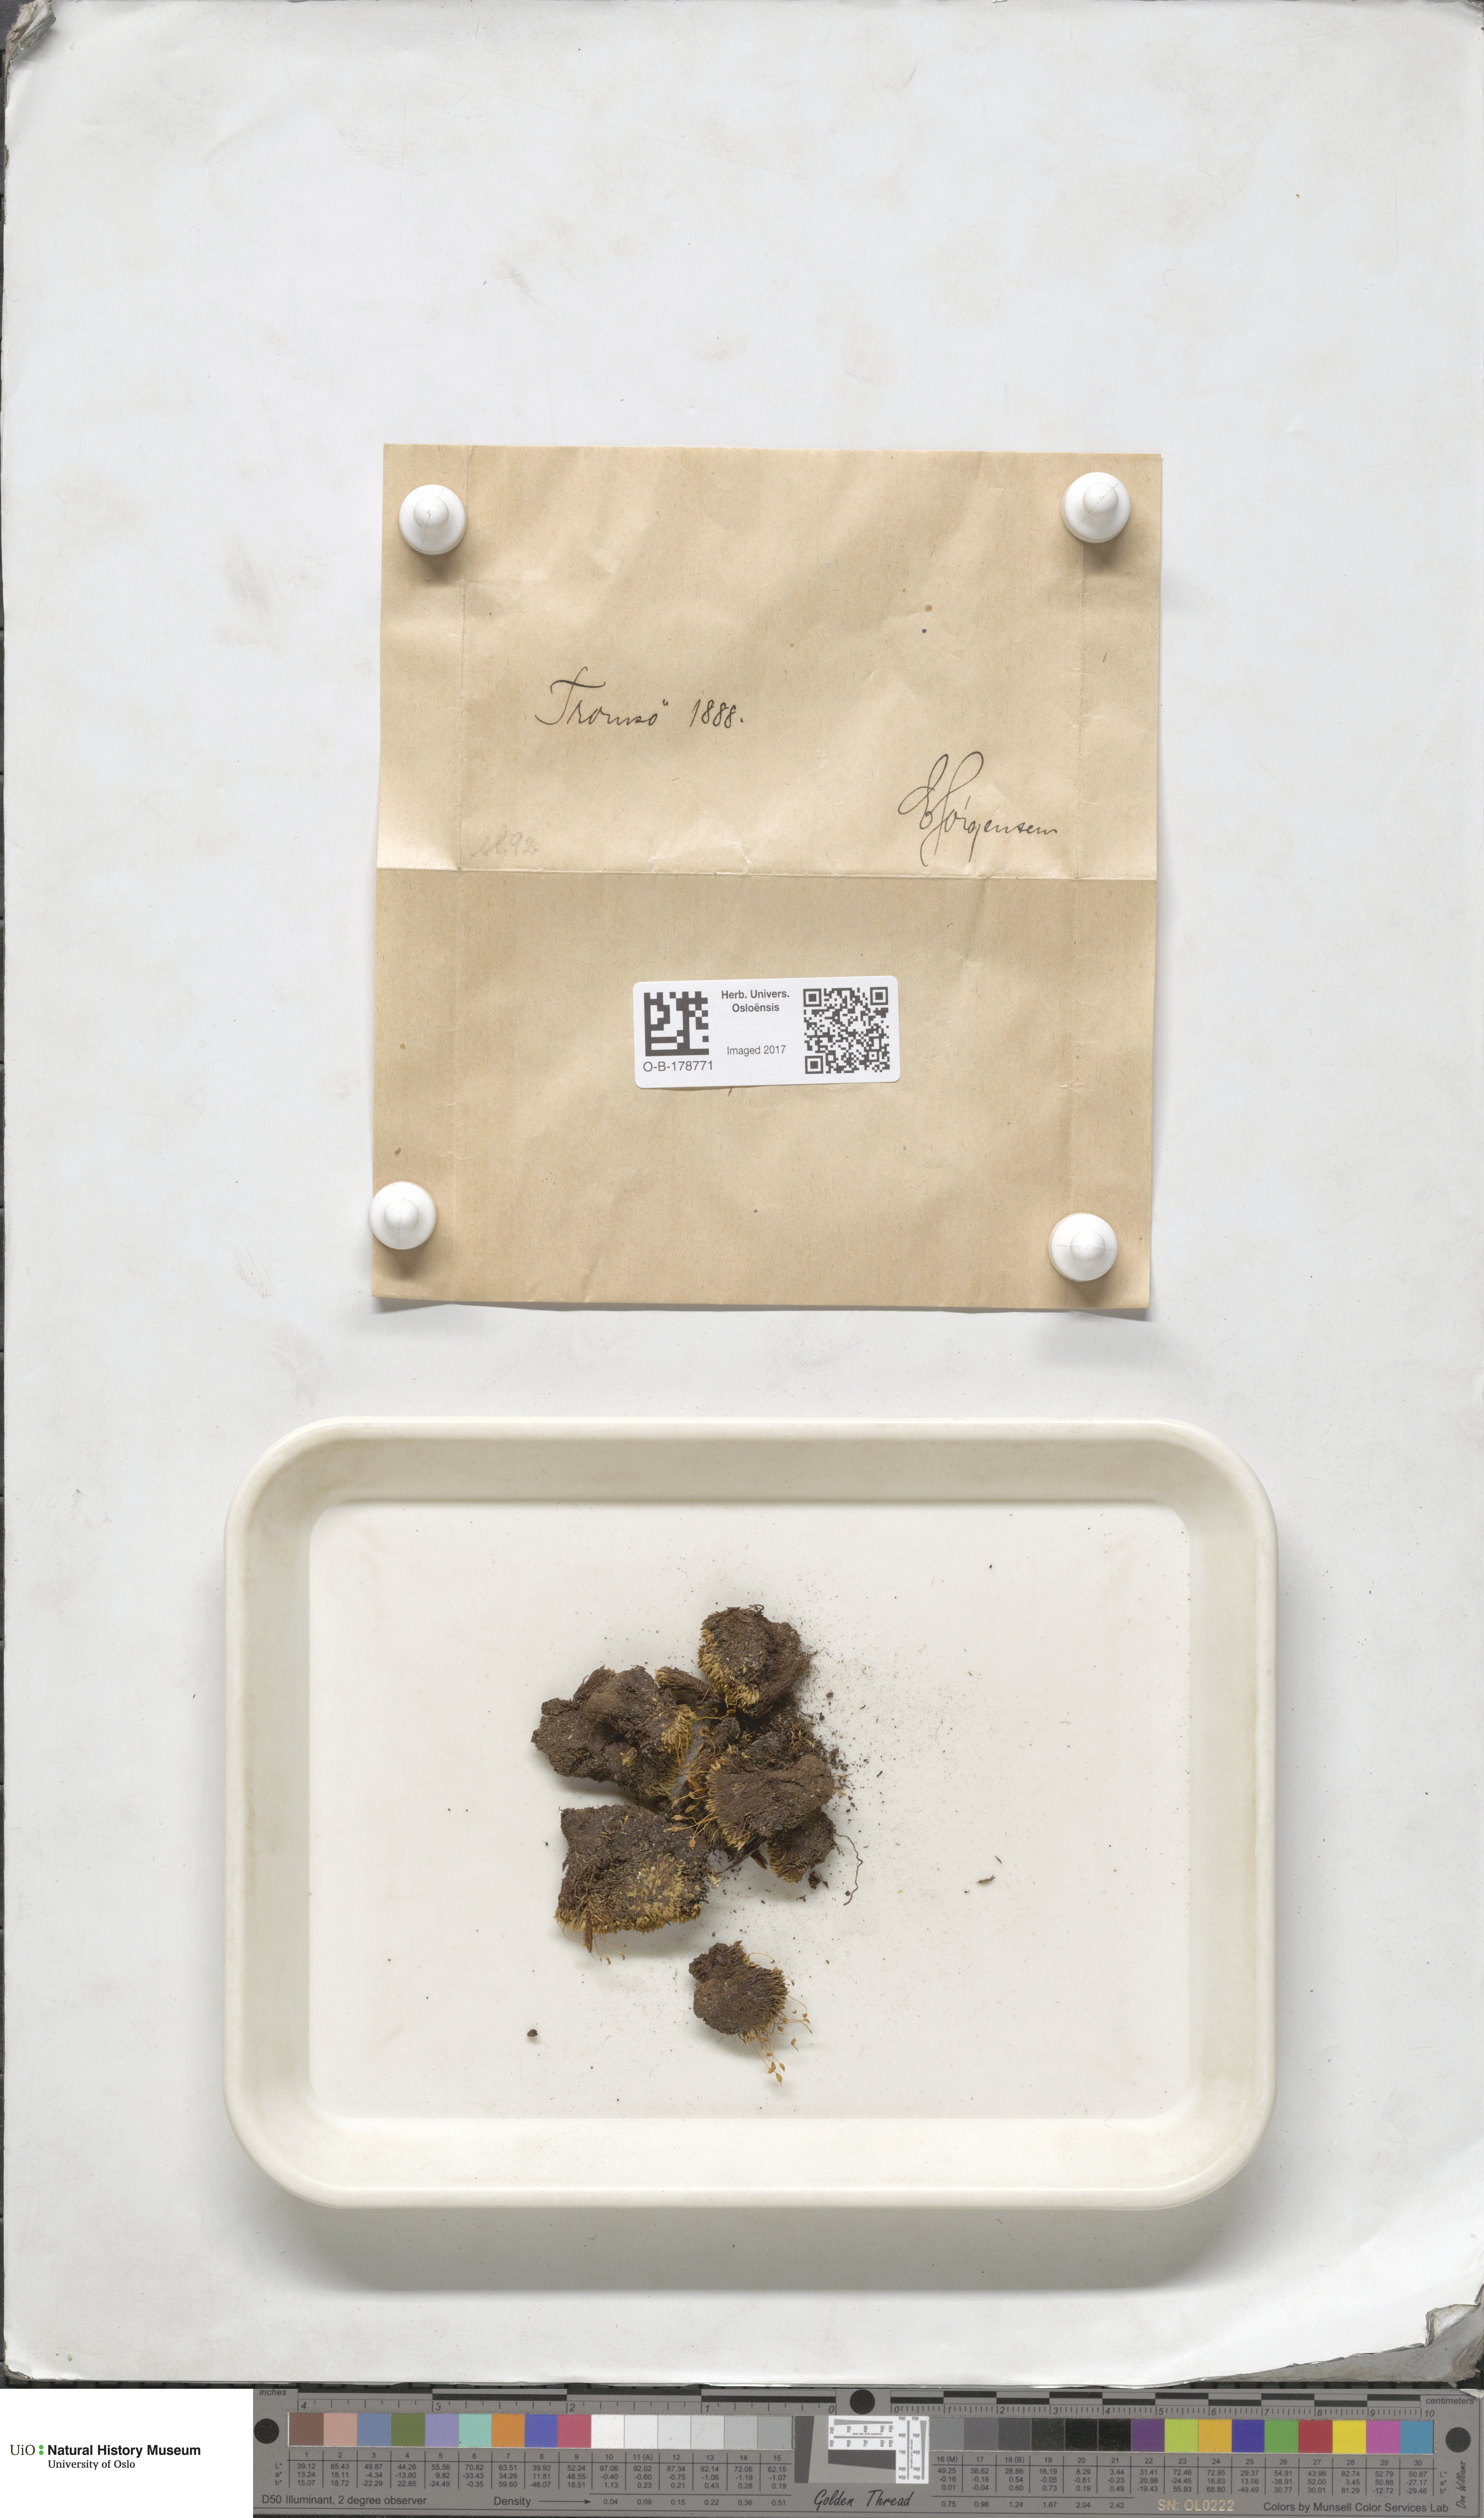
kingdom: Plantae
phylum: Bryophyta
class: Bryopsida
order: Bartramiales
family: Bartramiaceae
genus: Conostomum
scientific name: Conostomum tetragonum
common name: Helmet moss
